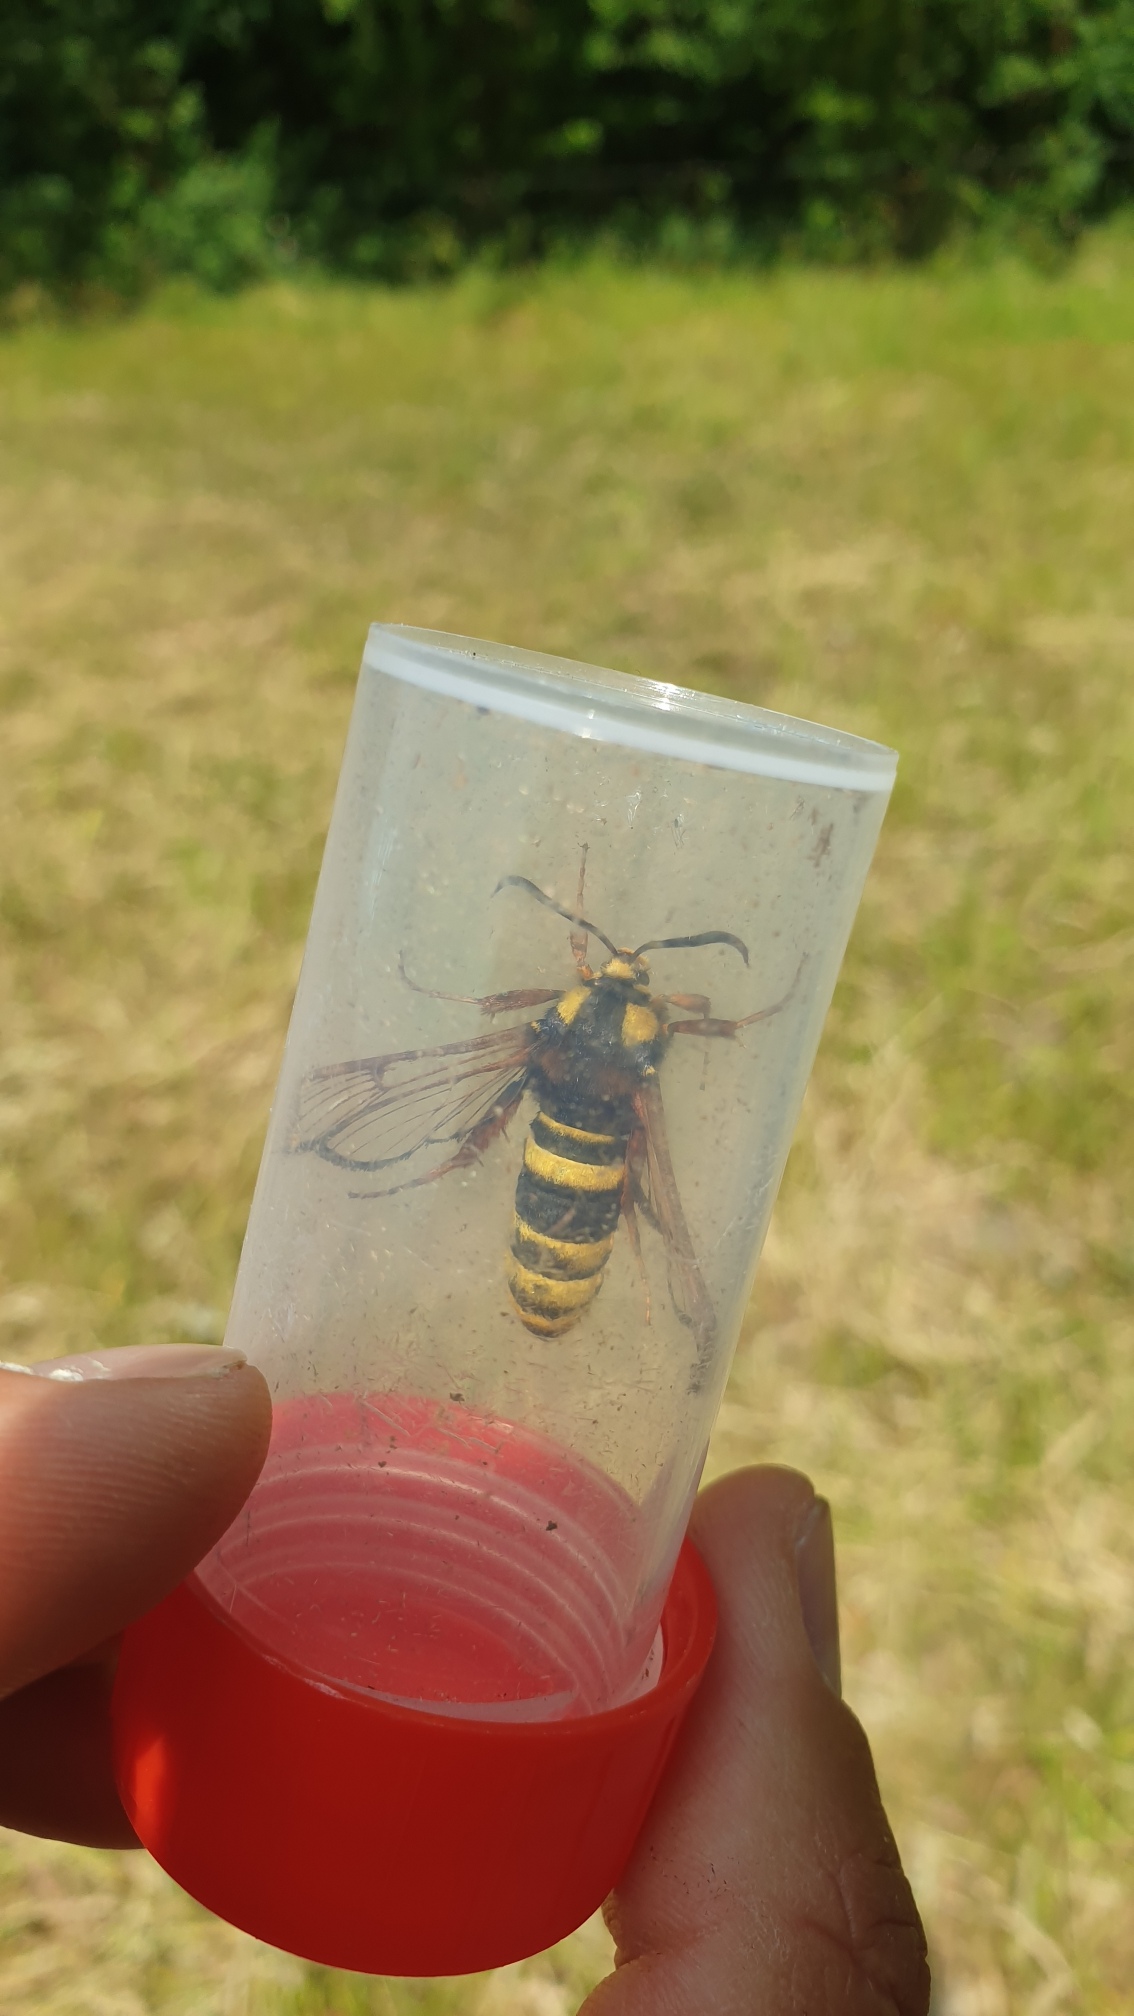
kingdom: Animalia
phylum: Arthropoda
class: Insecta
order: Lepidoptera
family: Sesiidae
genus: Sesia
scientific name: Sesia apiformis
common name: Stor glassværmer
